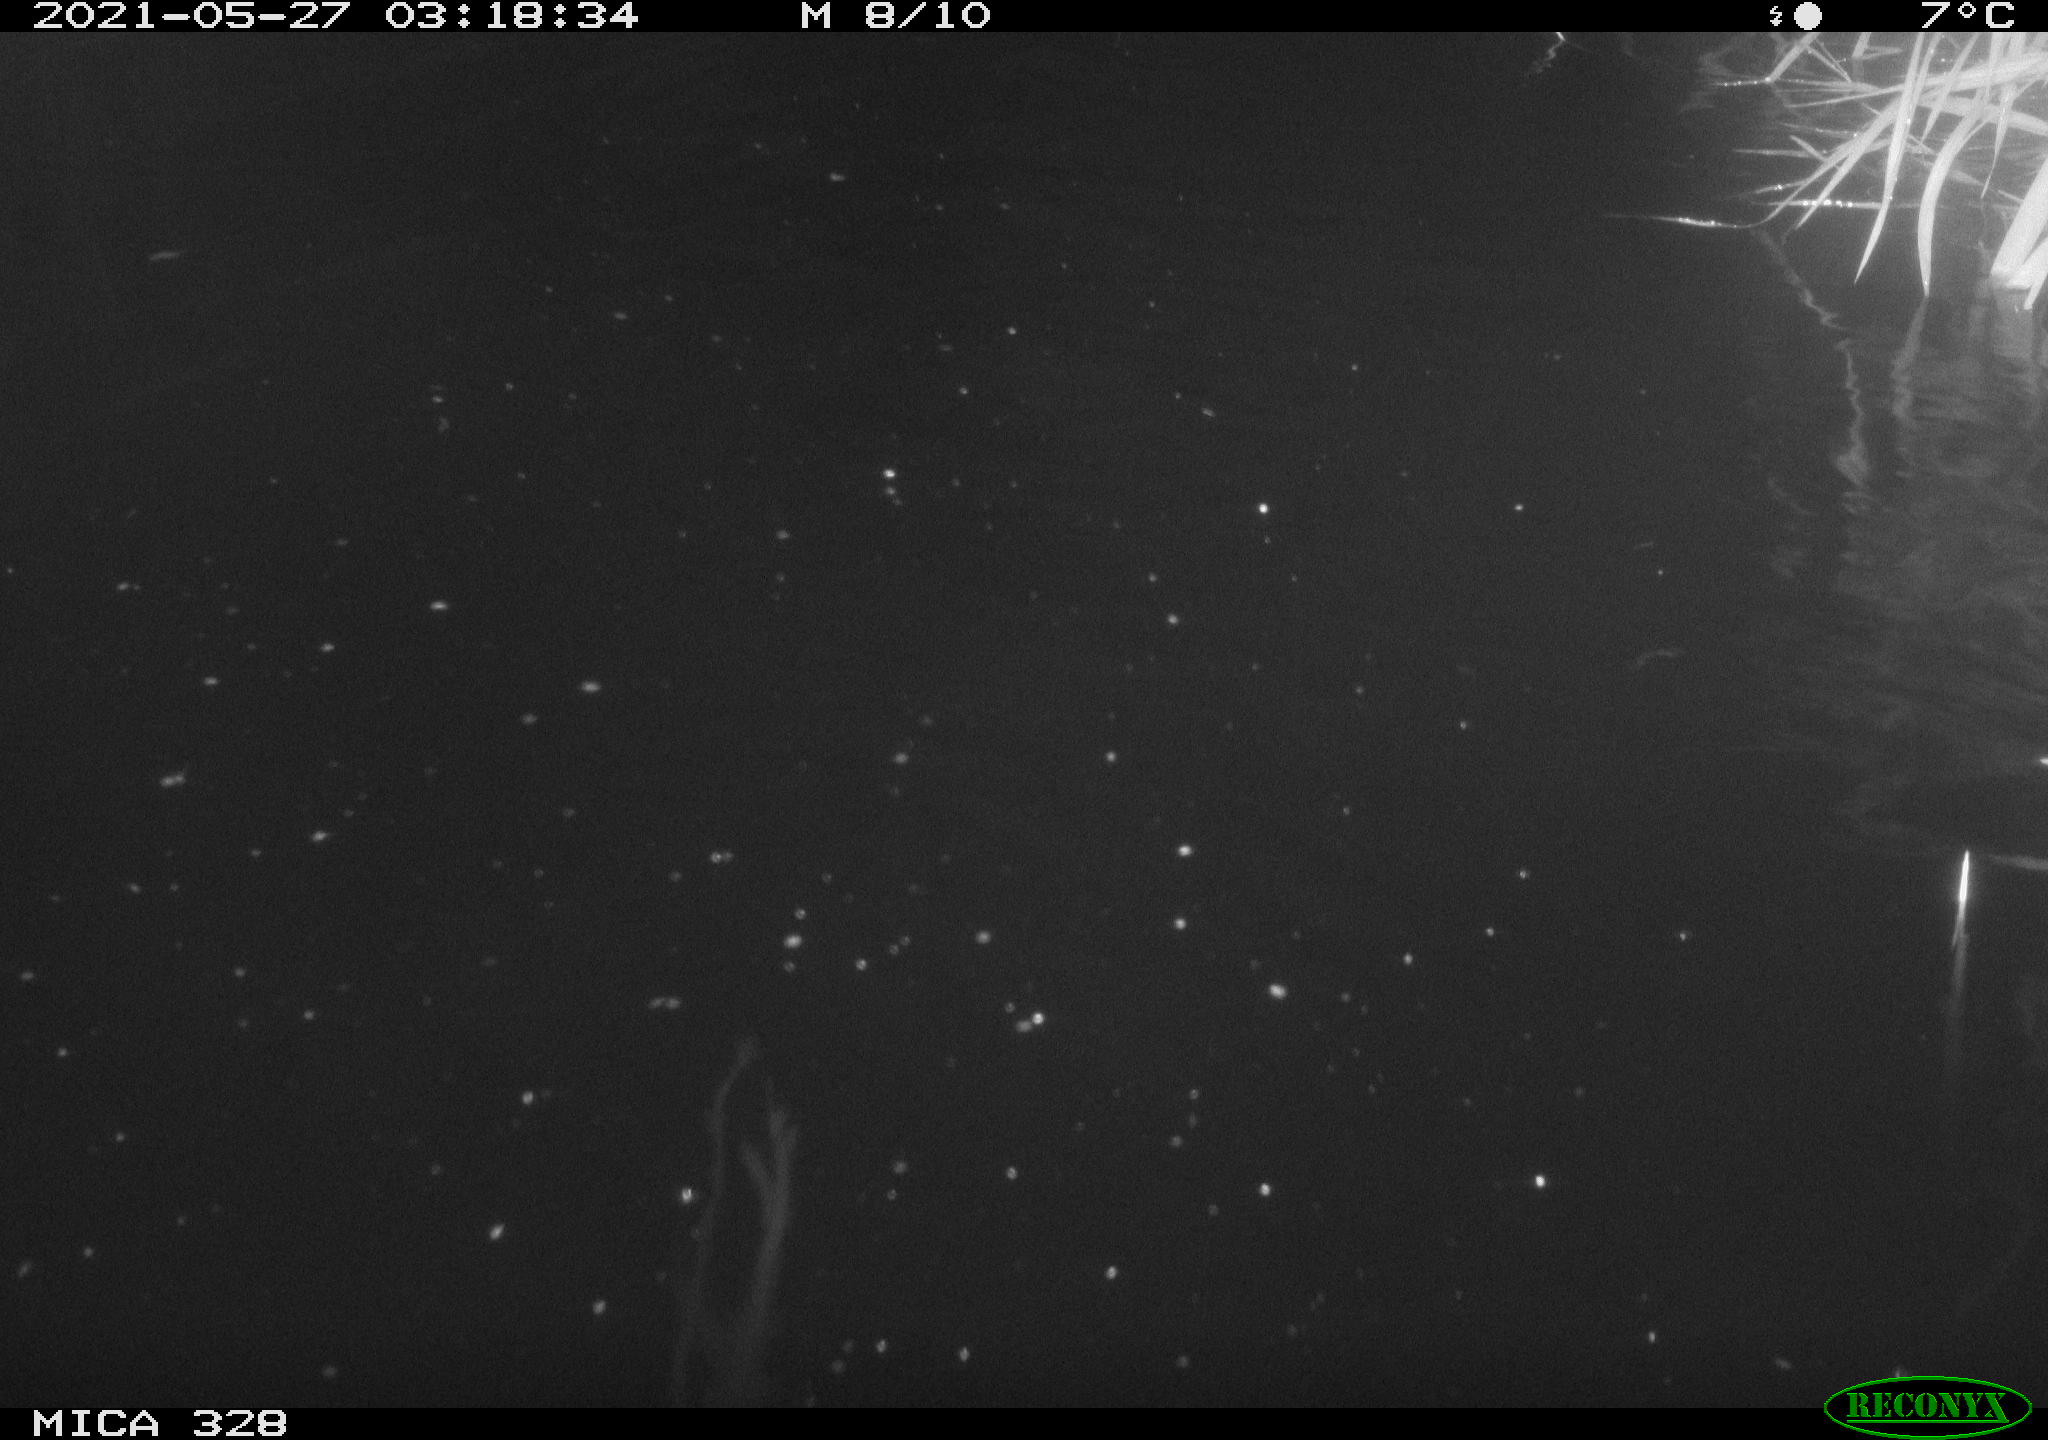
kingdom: Animalia
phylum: Chordata
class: Mammalia
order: Rodentia
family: Cricetidae
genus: Ondatra
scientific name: Ondatra zibethicus
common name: Muskrat
